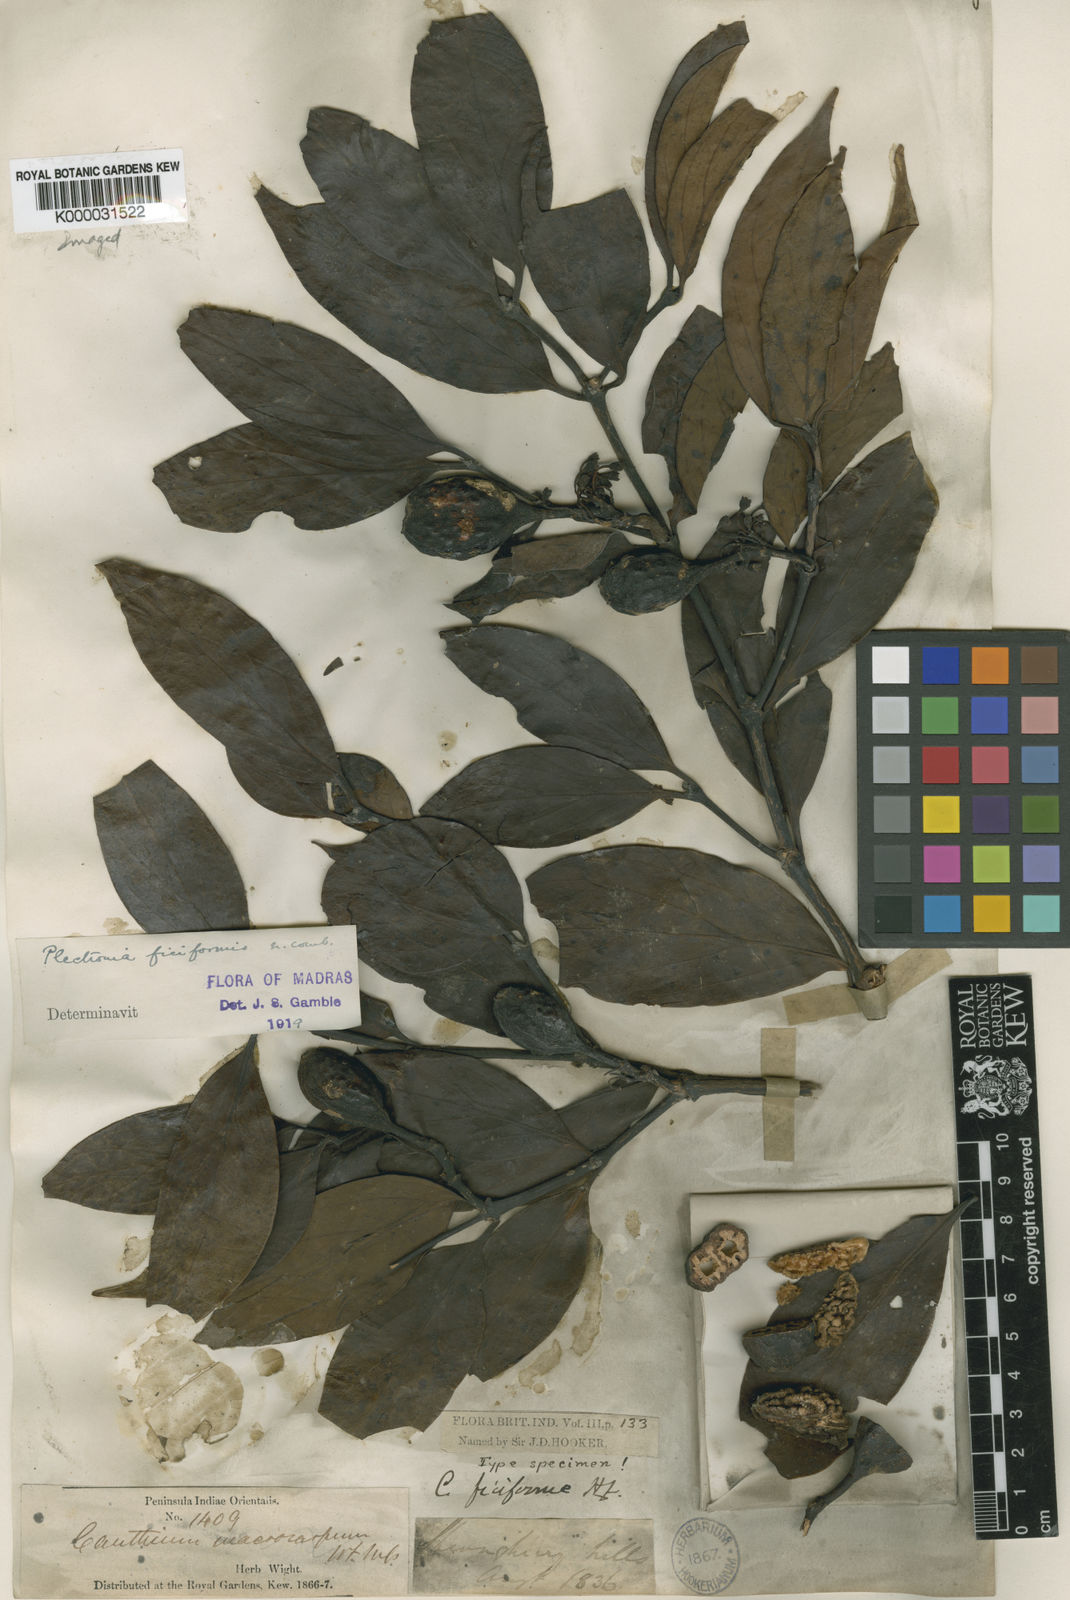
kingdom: Plantae
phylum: Tracheophyta
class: Magnoliopsida
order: Gentianales
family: Rubiaceae
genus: Psydrax
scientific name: Psydrax ficiformis
